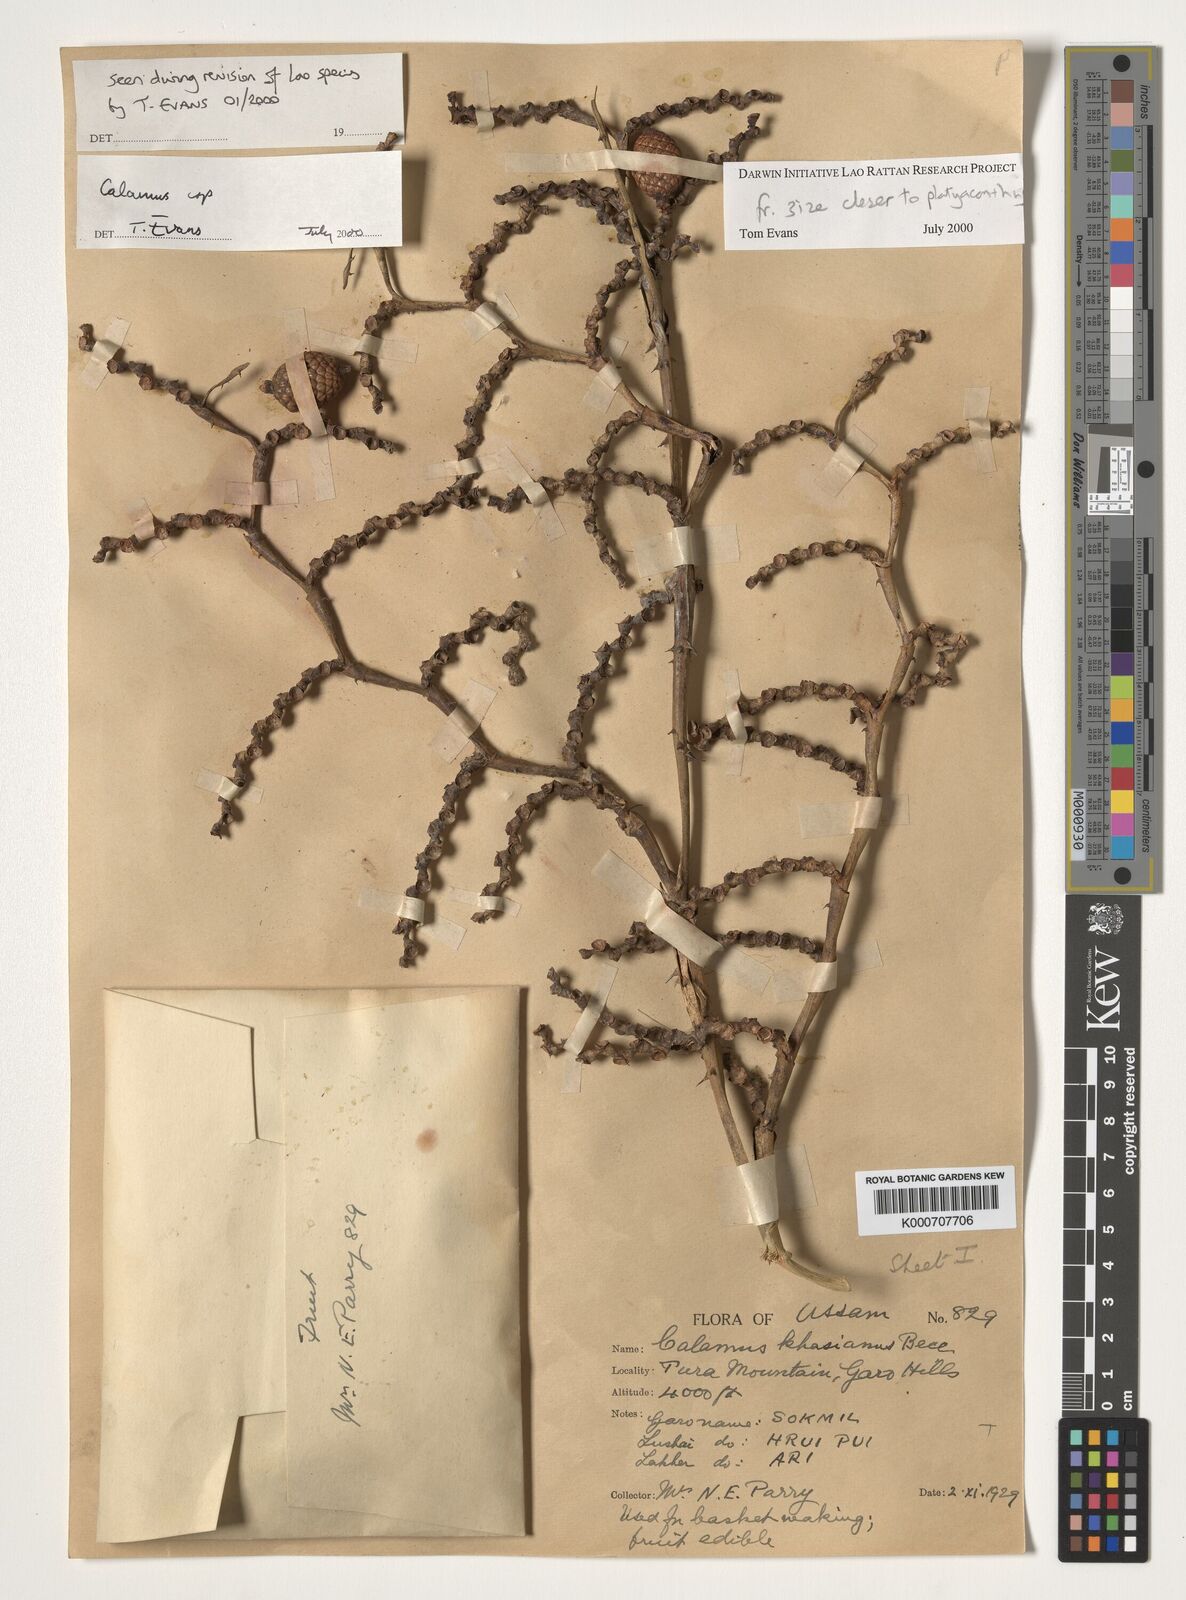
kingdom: Plantae
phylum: Tracheophyta
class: Liliopsida
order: Arecales
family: Arecaceae
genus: Calamus
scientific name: Calamus
